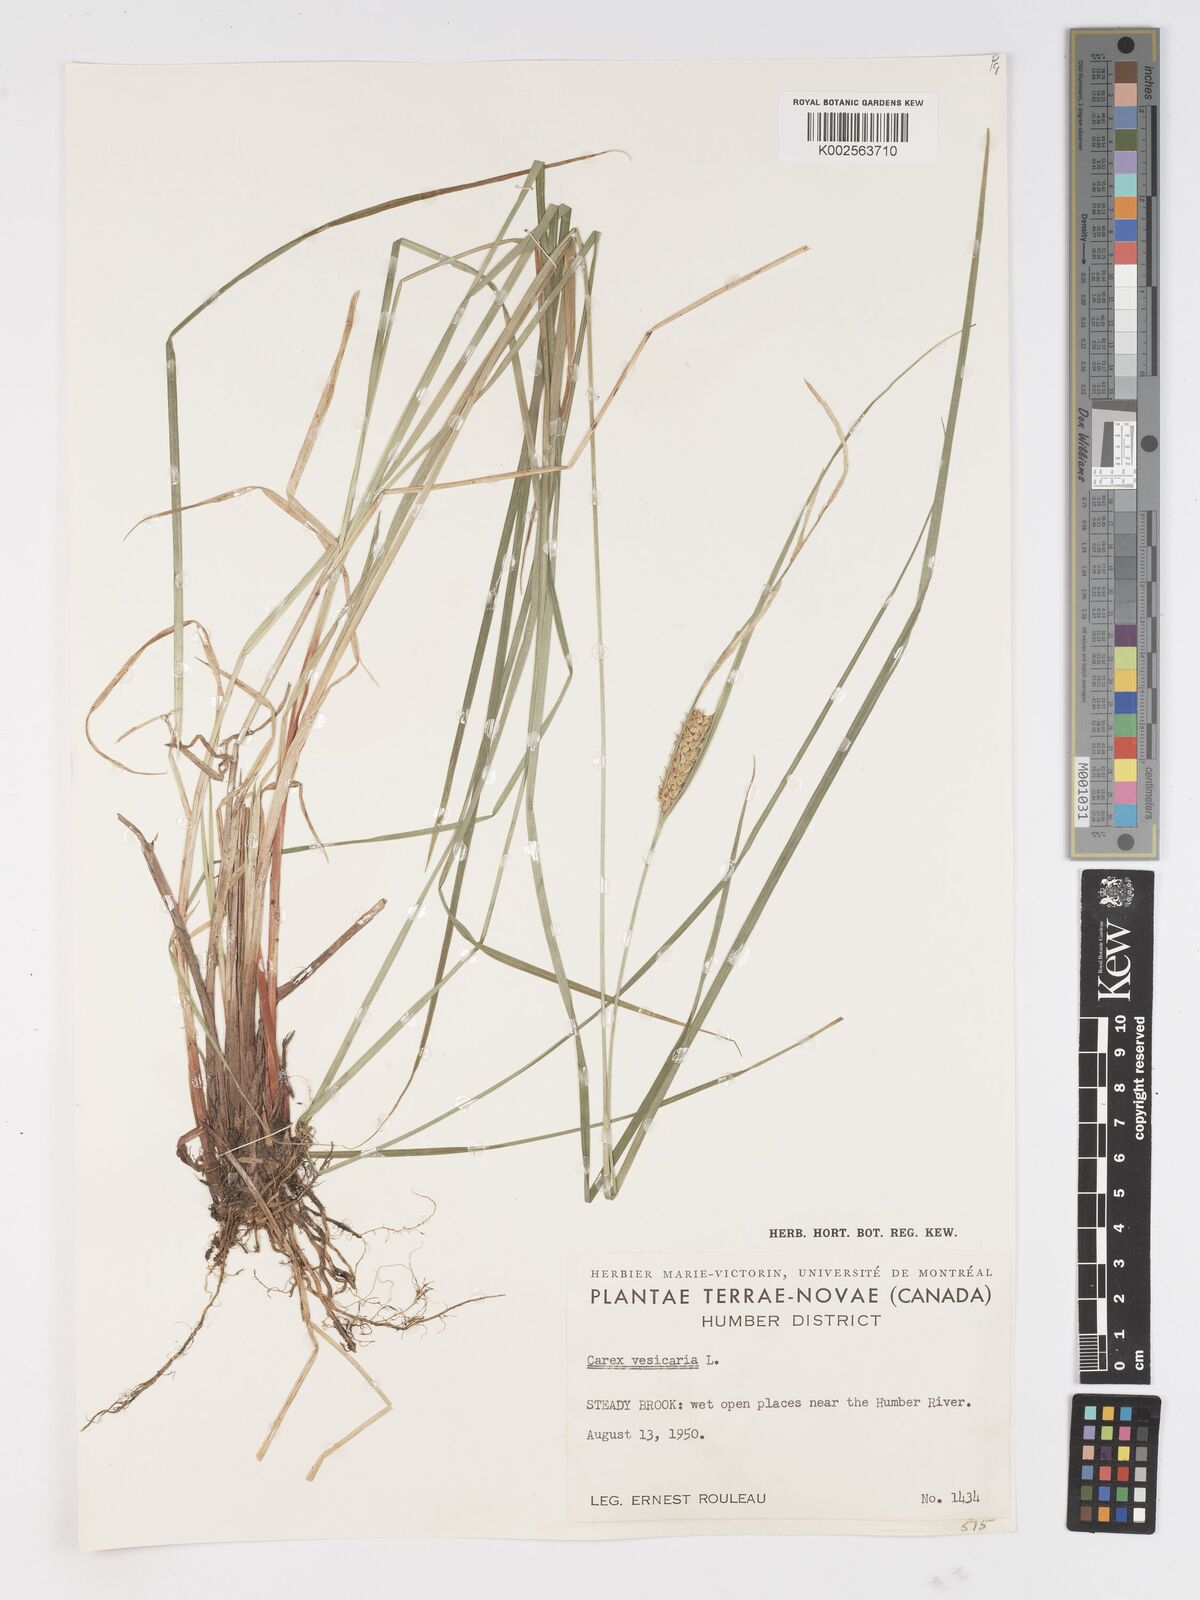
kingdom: Plantae
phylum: Tracheophyta
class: Liliopsida
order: Poales
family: Cyperaceae
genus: Carex
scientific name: Carex vesicaria
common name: Bladder-sedge
